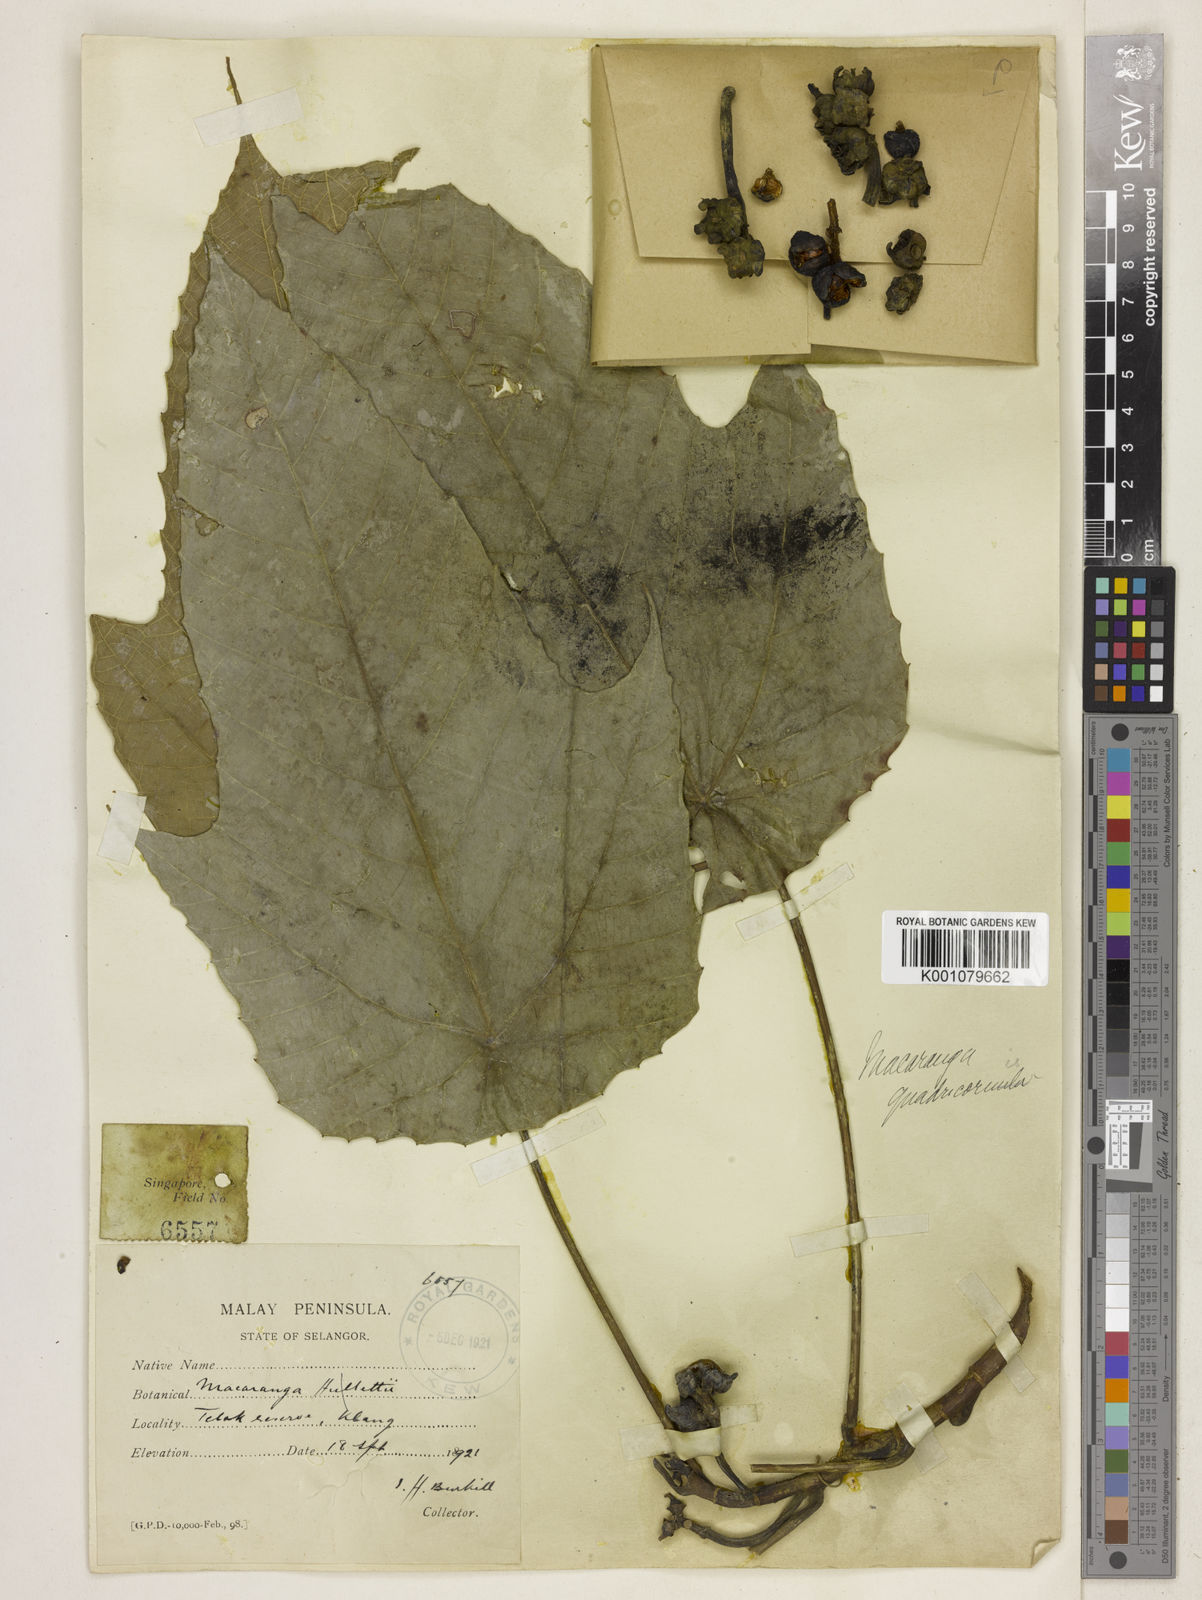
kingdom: Plantae
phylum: Tracheophyta
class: Magnoliopsida
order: Malpighiales
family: Euphorbiaceae
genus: Macaranga
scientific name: Macaranga hullettii
